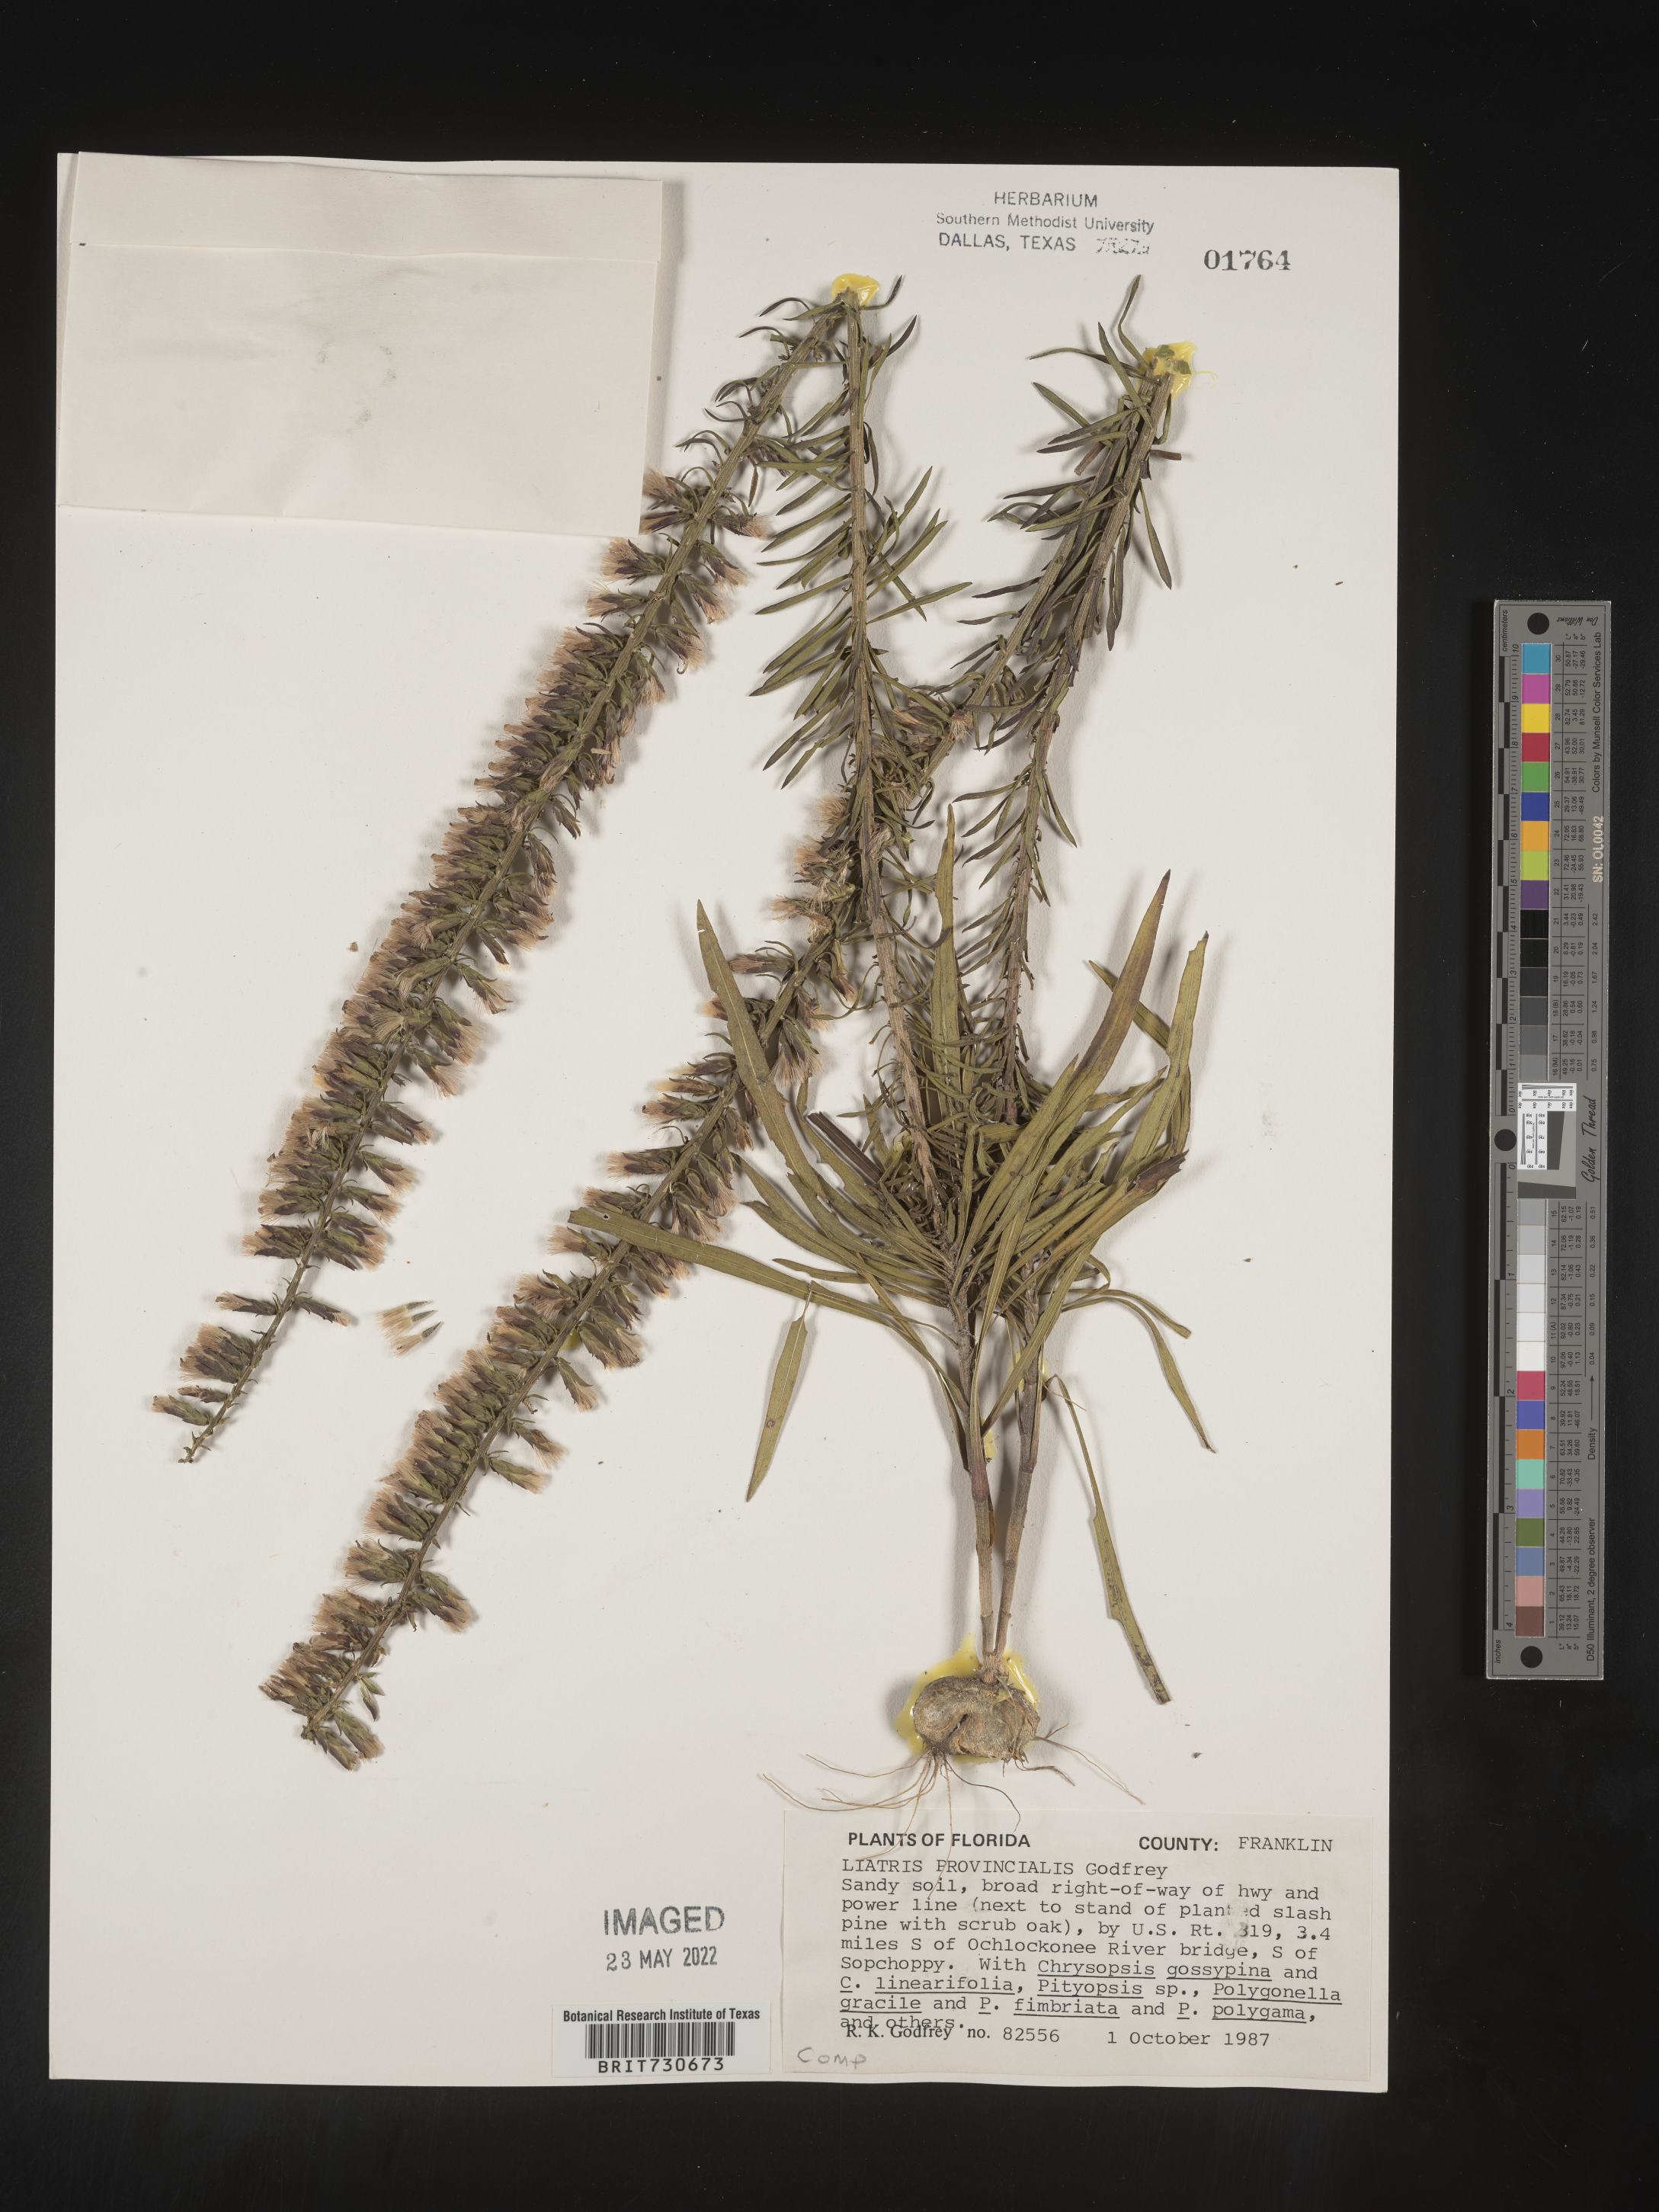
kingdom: Plantae
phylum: Tracheophyta
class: Magnoliopsida
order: Asterales
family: Asteraceae
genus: Liatris
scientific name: Liatris provincialis
